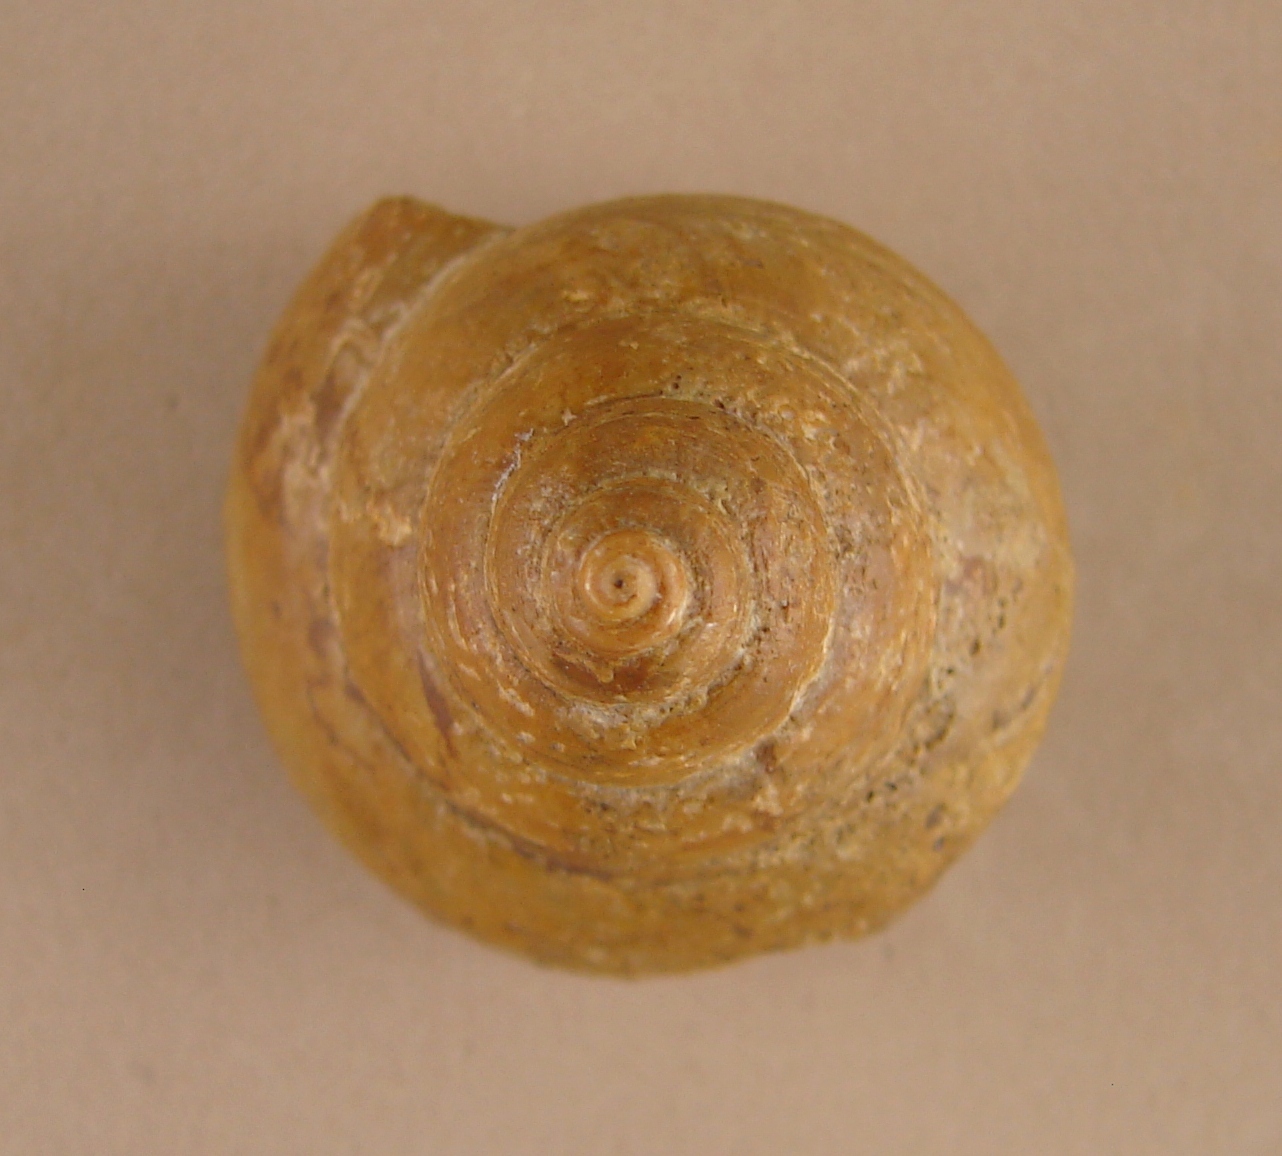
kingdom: Animalia
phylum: Mollusca
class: Gastropoda
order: Pleurotomariida
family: Pleurotomariidae
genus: Laevitomaria
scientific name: Laevitomaria
